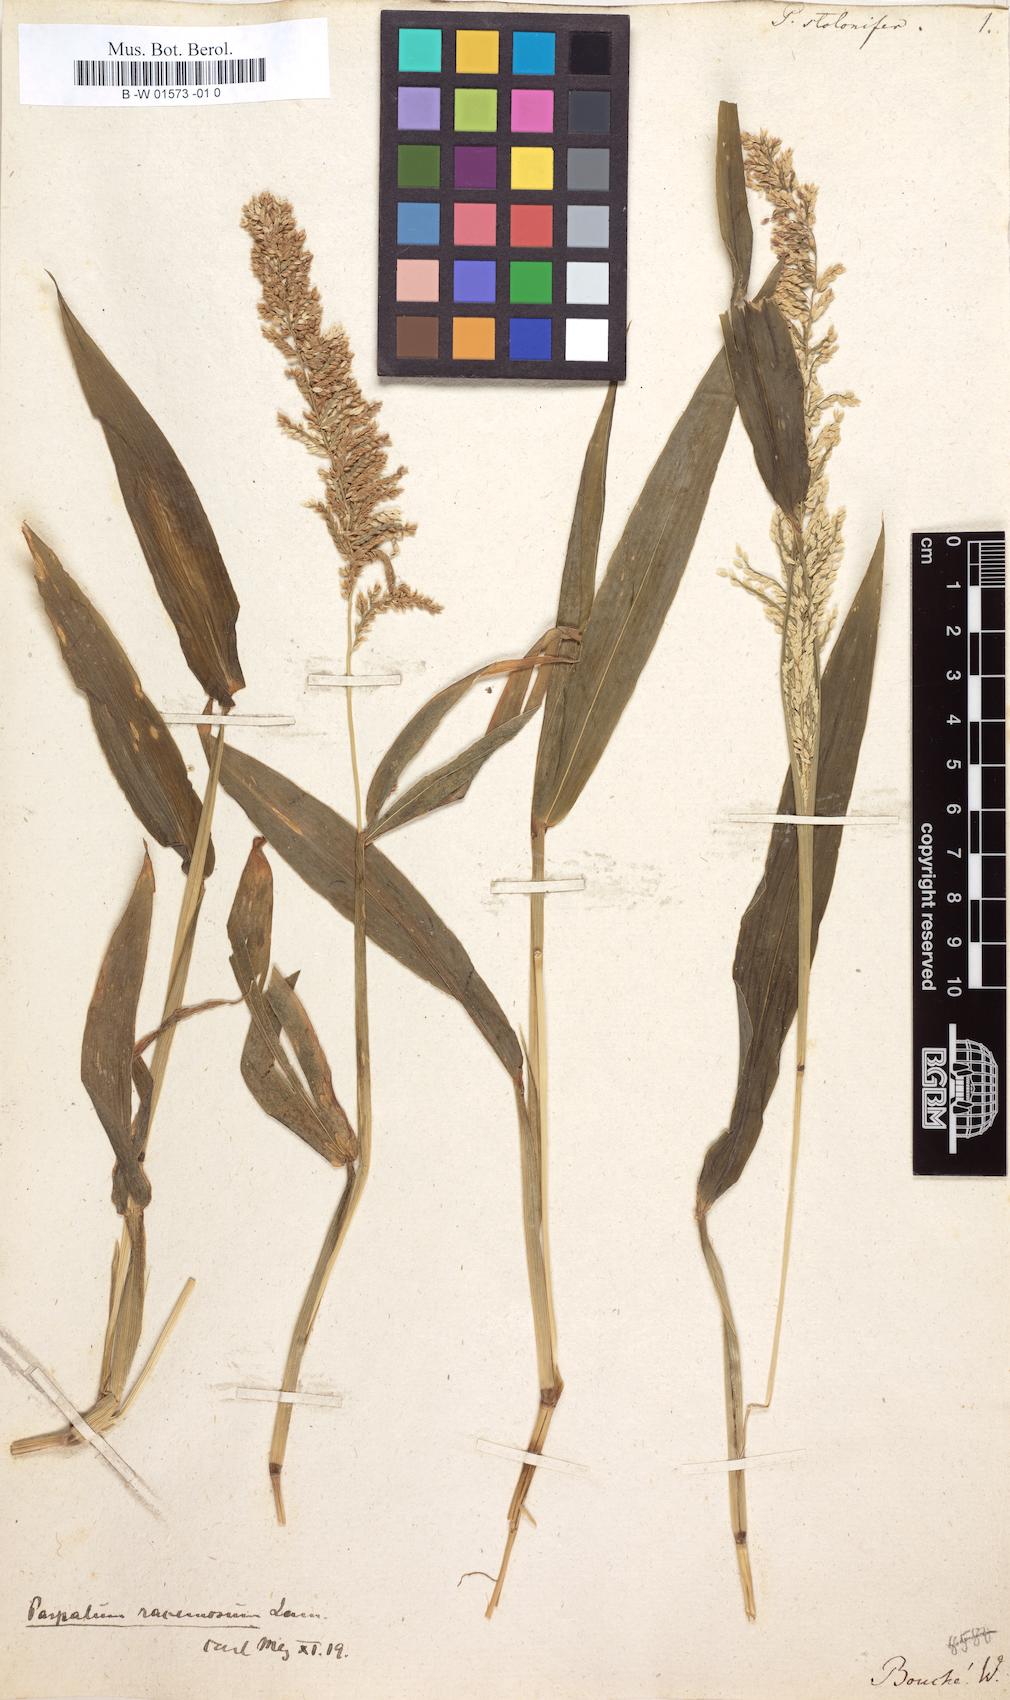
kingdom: Plantae
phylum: Tracheophyta
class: Liliopsida
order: Poales
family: Poaceae
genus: Paspalum
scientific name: Paspalum racemosum
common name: Peruvian paspalum
